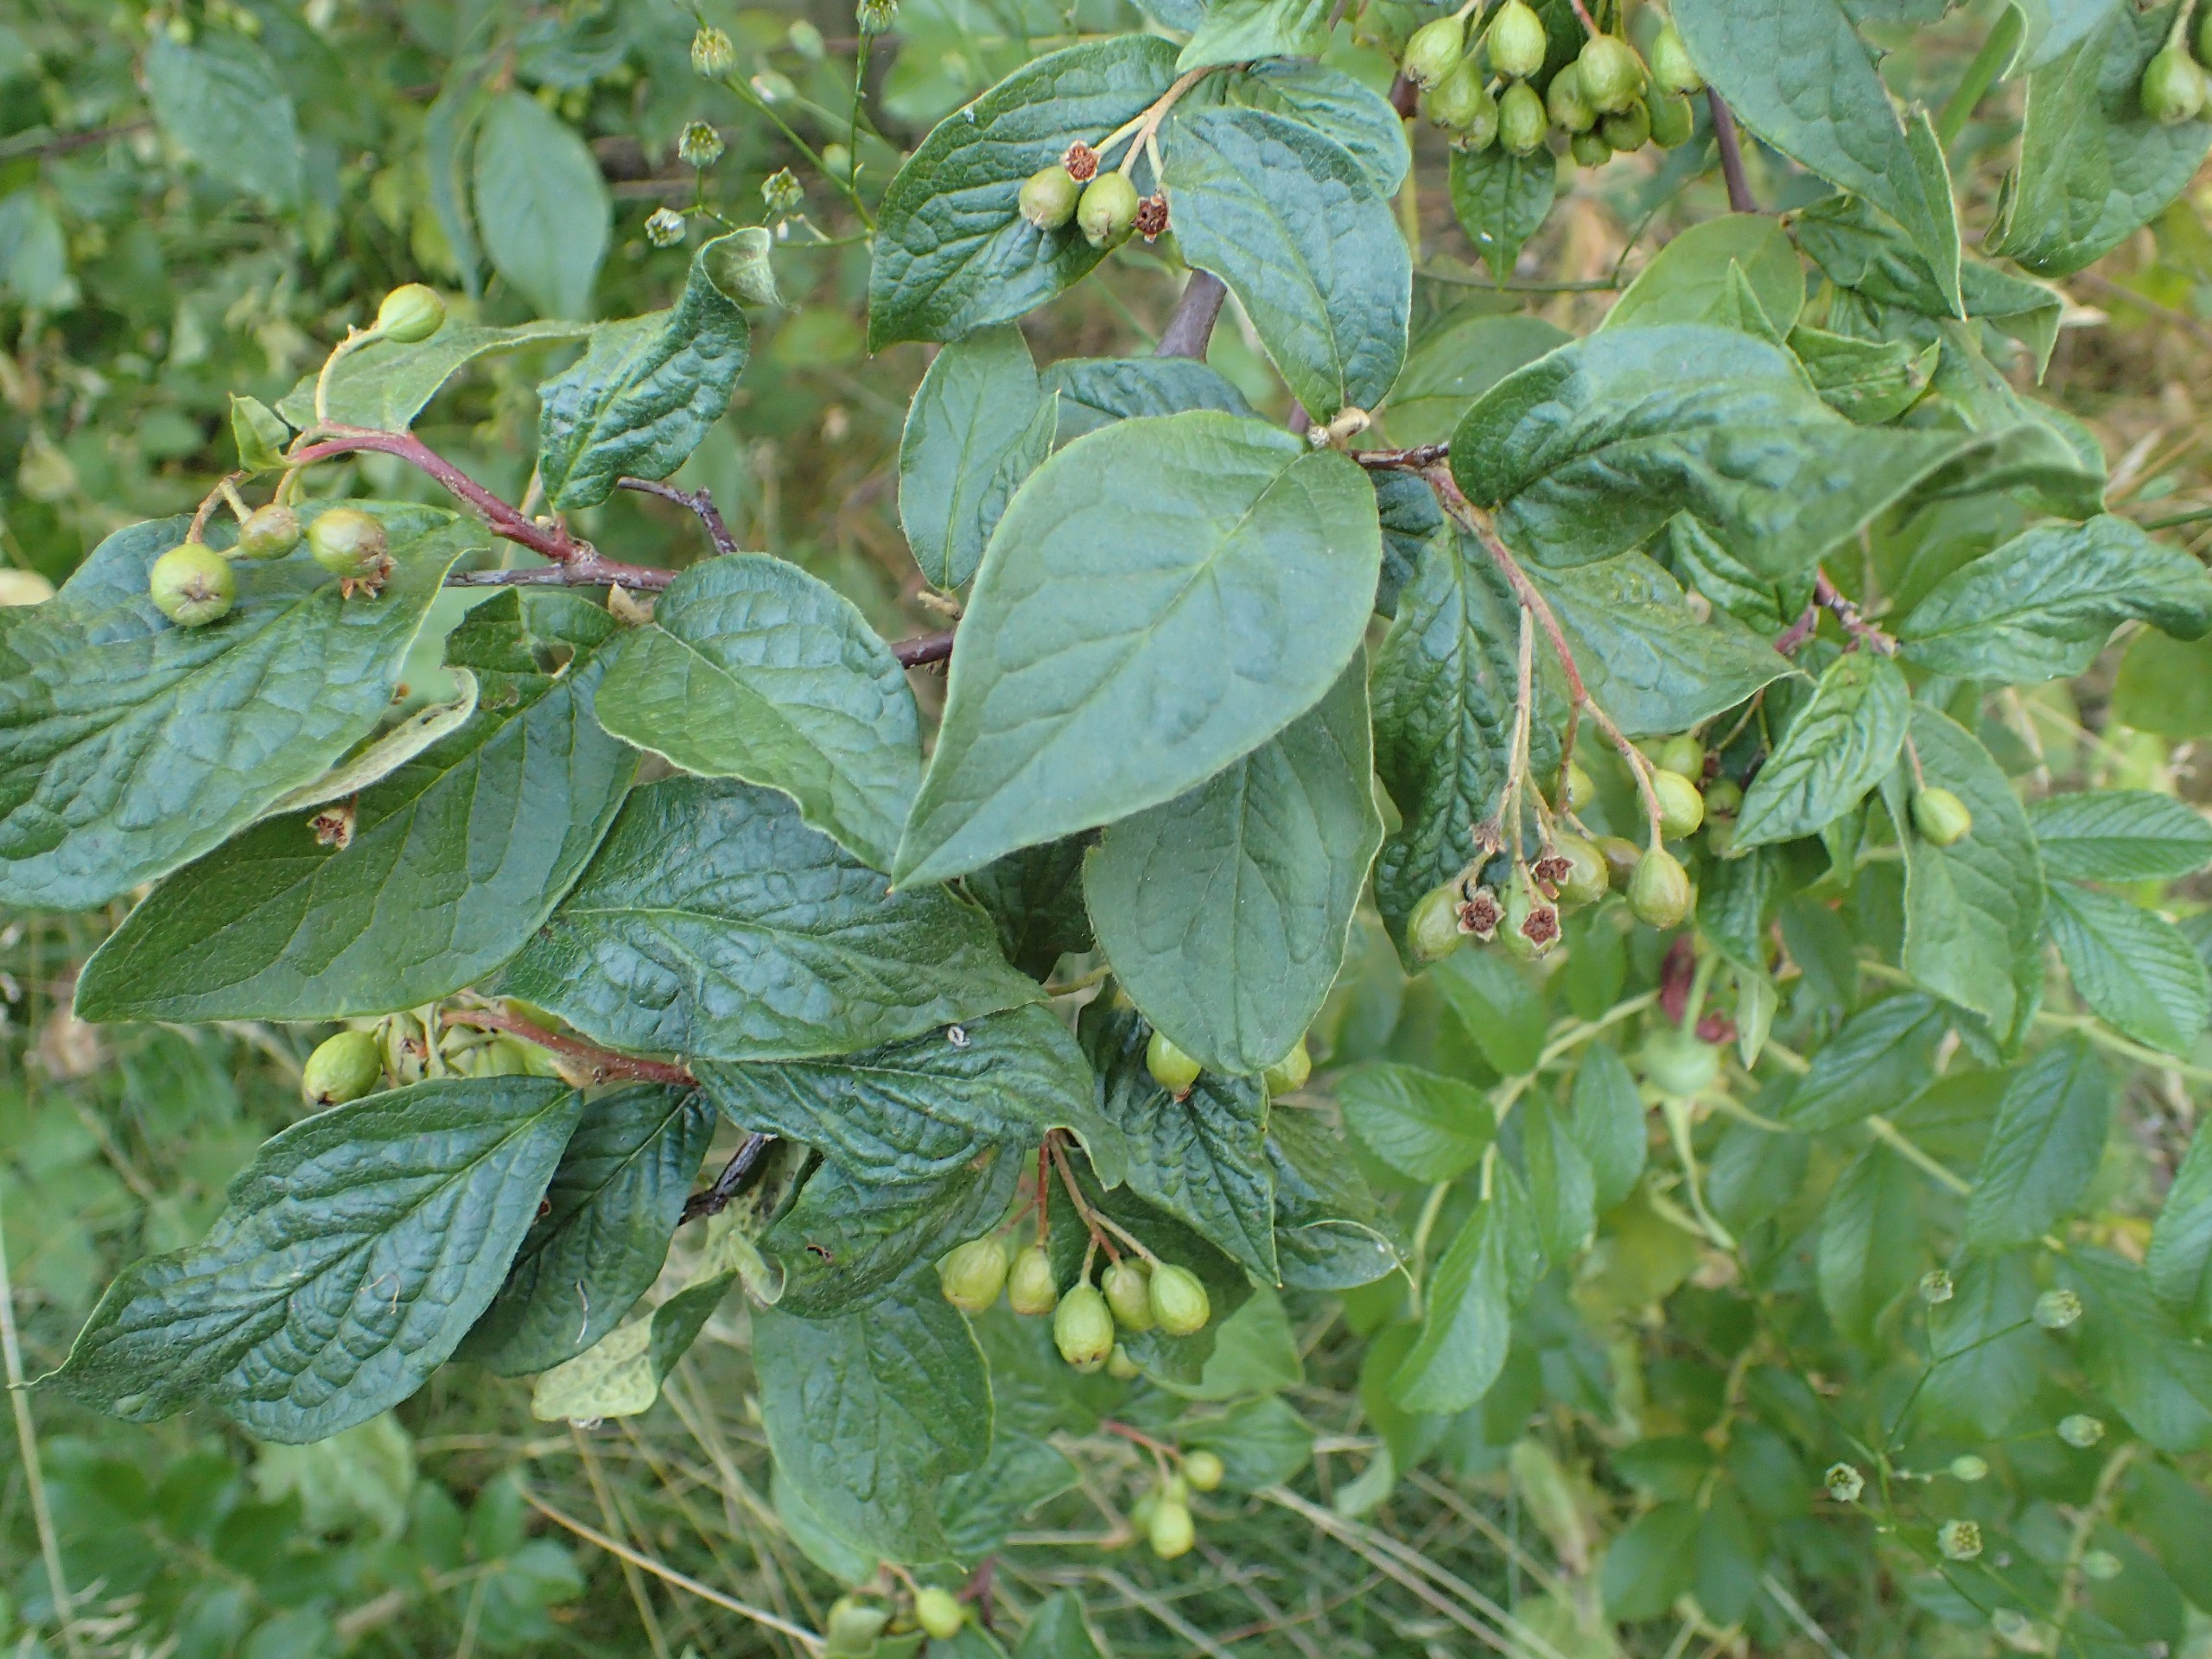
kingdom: Plantae
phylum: Tracheophyta
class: Magnoliopsida
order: Rosales
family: Rosaceae
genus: Cotoneaster
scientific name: Cotoneaster bullatus
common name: Buklet dværgmispel
